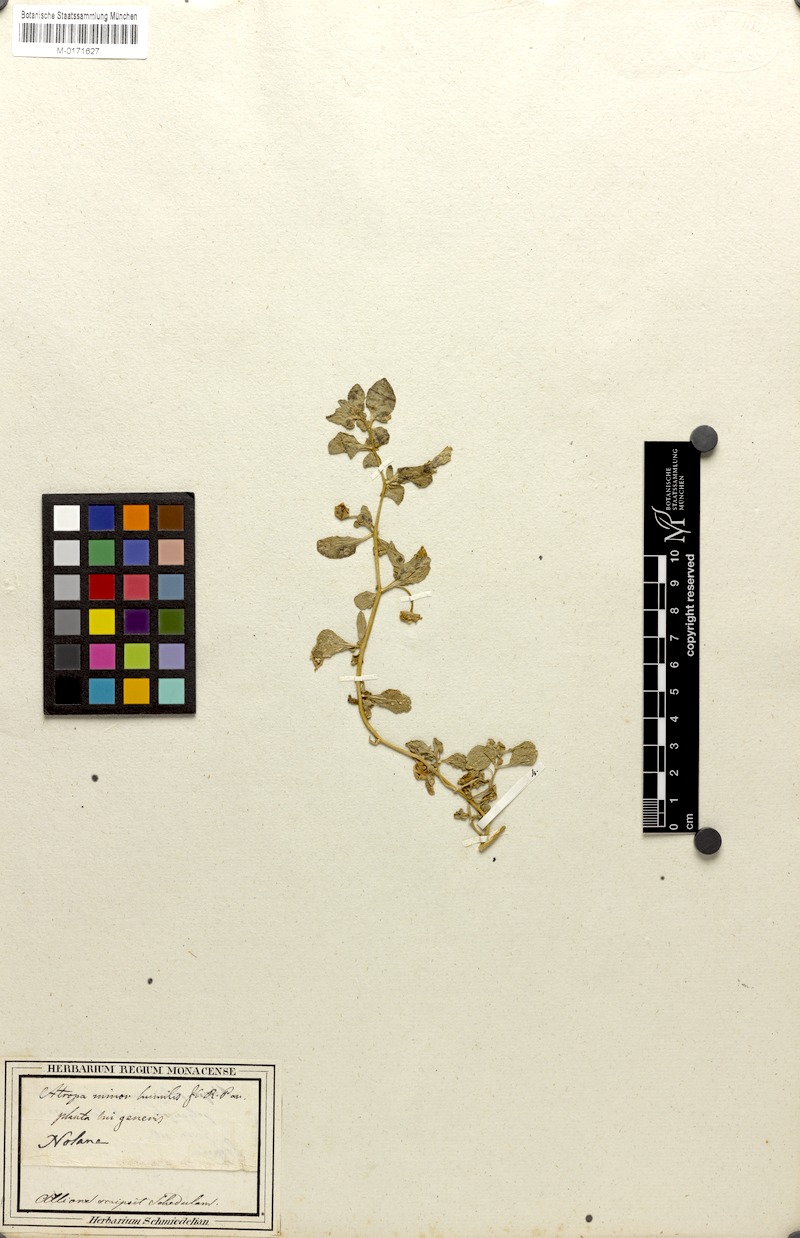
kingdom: Plantae
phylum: Tracheophyta
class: Magnoliopsida
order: Solanales
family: Solanaceae
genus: Nolana
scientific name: Nolana humifusa
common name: Trailing chilean-bellflower
